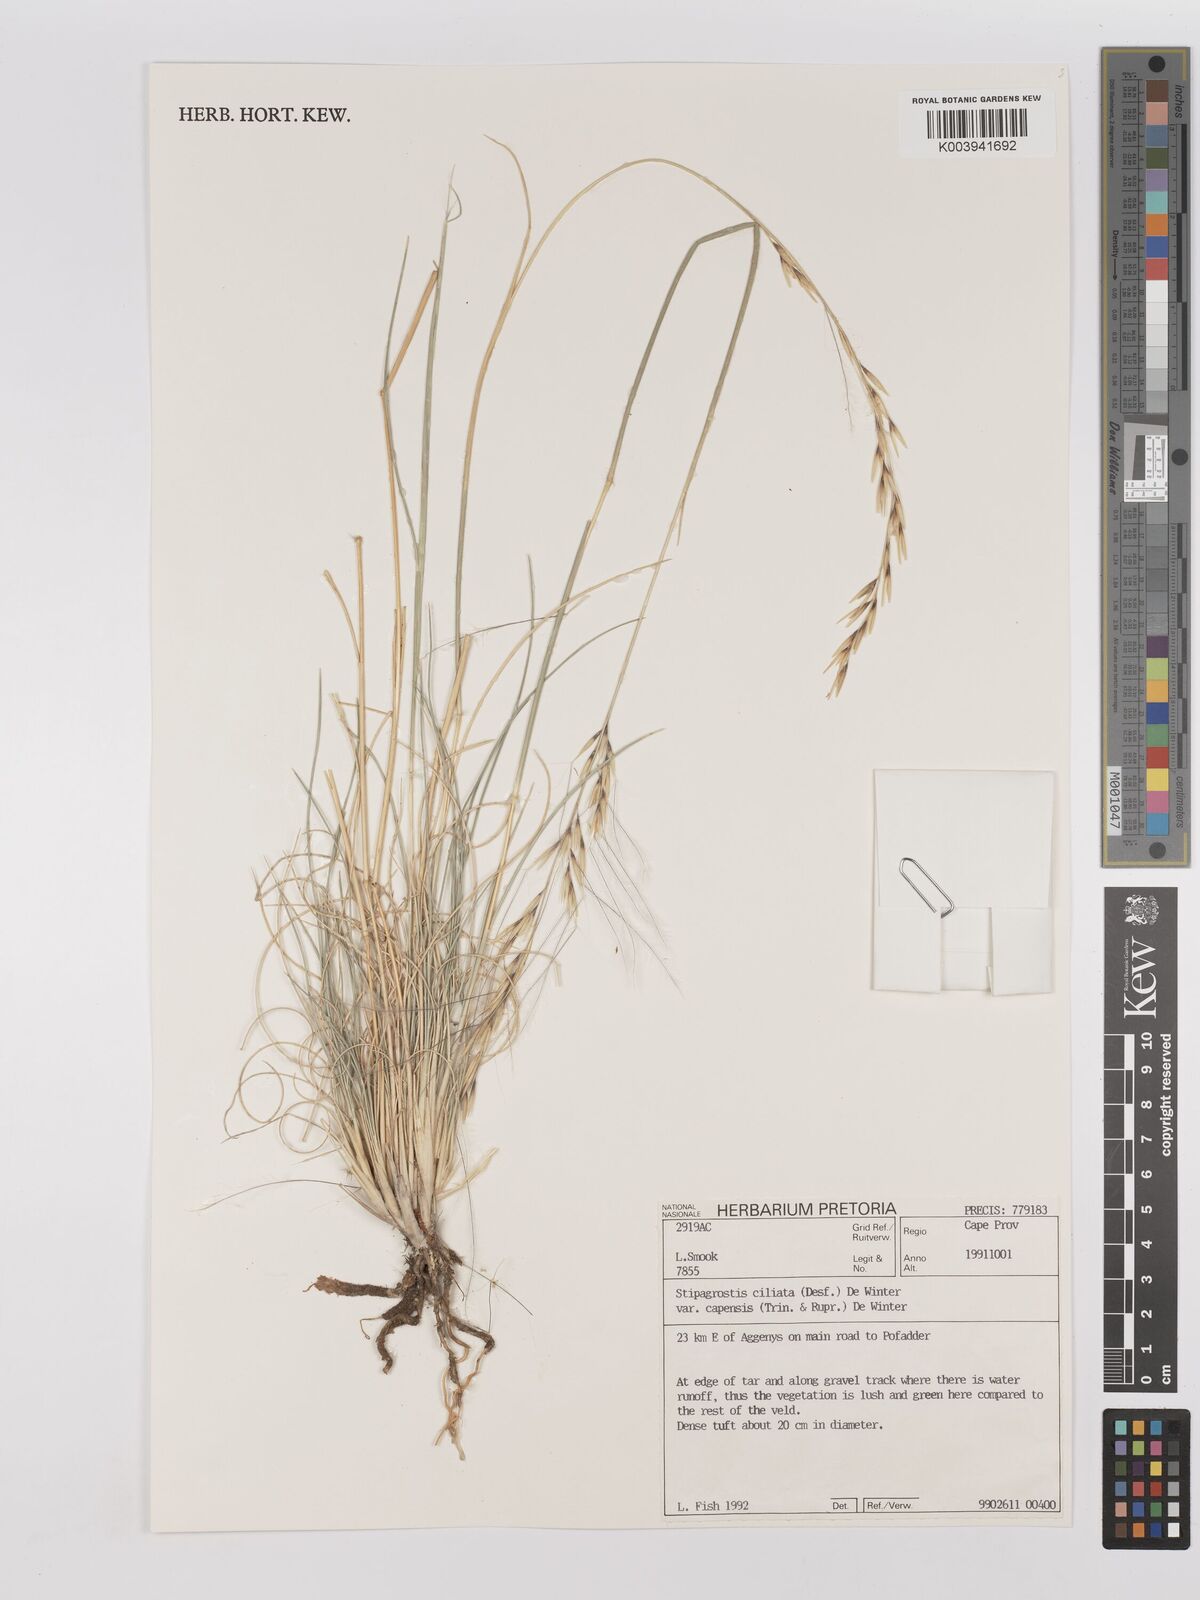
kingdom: Plantae
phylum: Tracheophyta
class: Liliopsida
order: Poales
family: Poaceae
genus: Stipagrostis
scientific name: Stipagrostis ciliata
